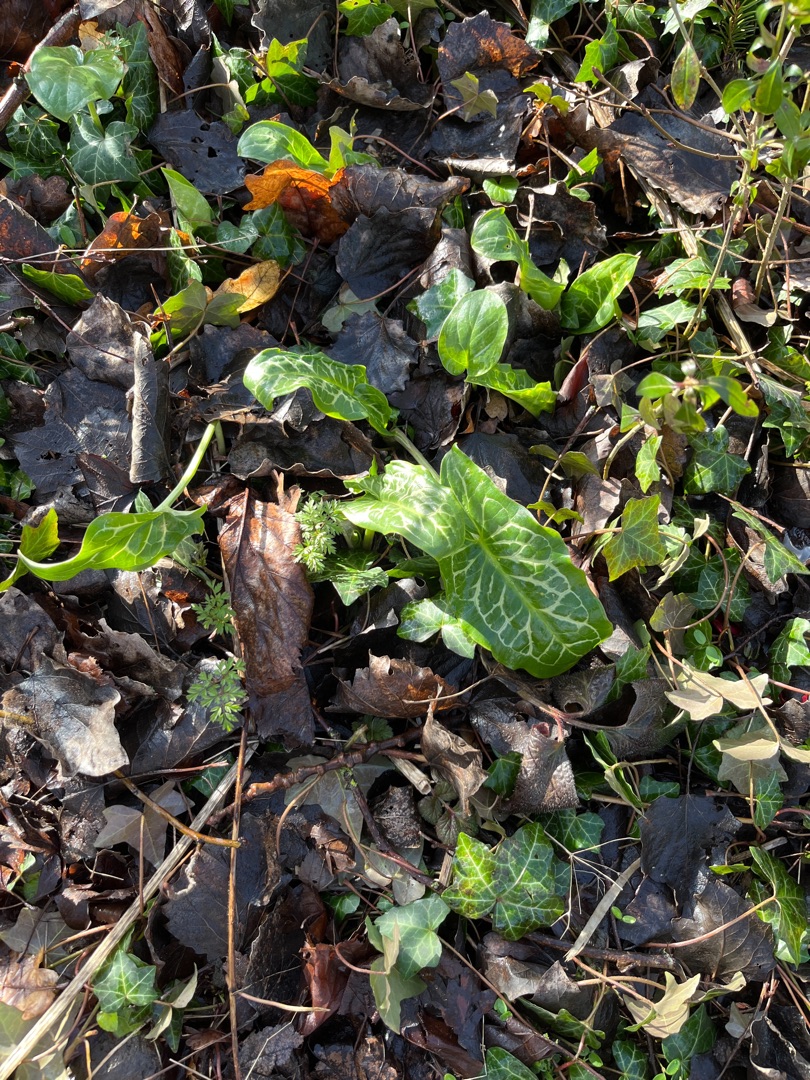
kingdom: Plantae
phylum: Tracheophyta
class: Liliopsida
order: Alismatales
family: Araceae
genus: Arum
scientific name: Arum italicum
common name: Italiensk arum
